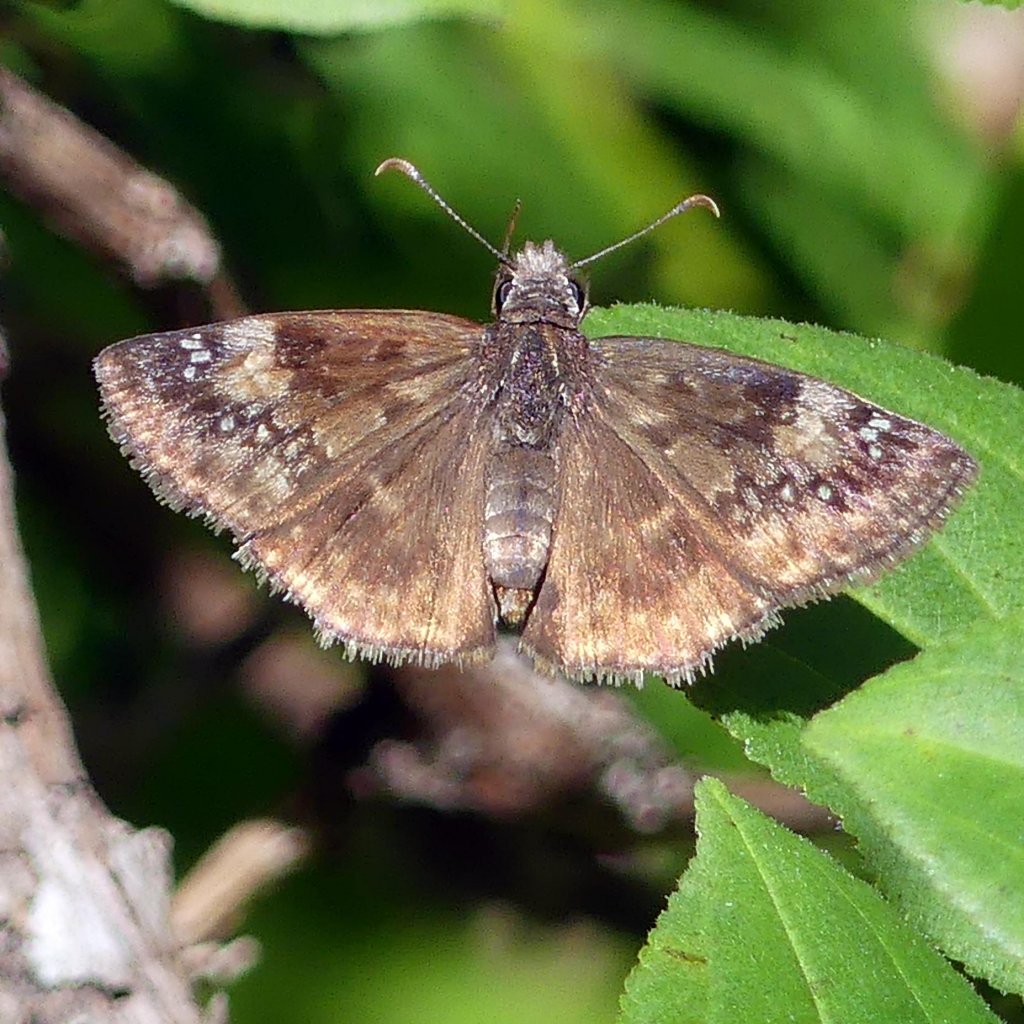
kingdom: Animalia
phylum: Arthropoda
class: Insecta
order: Lepidoptera
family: Hesperiidae
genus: Gesta
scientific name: Gesta
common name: Wild Indigo Duskywing
